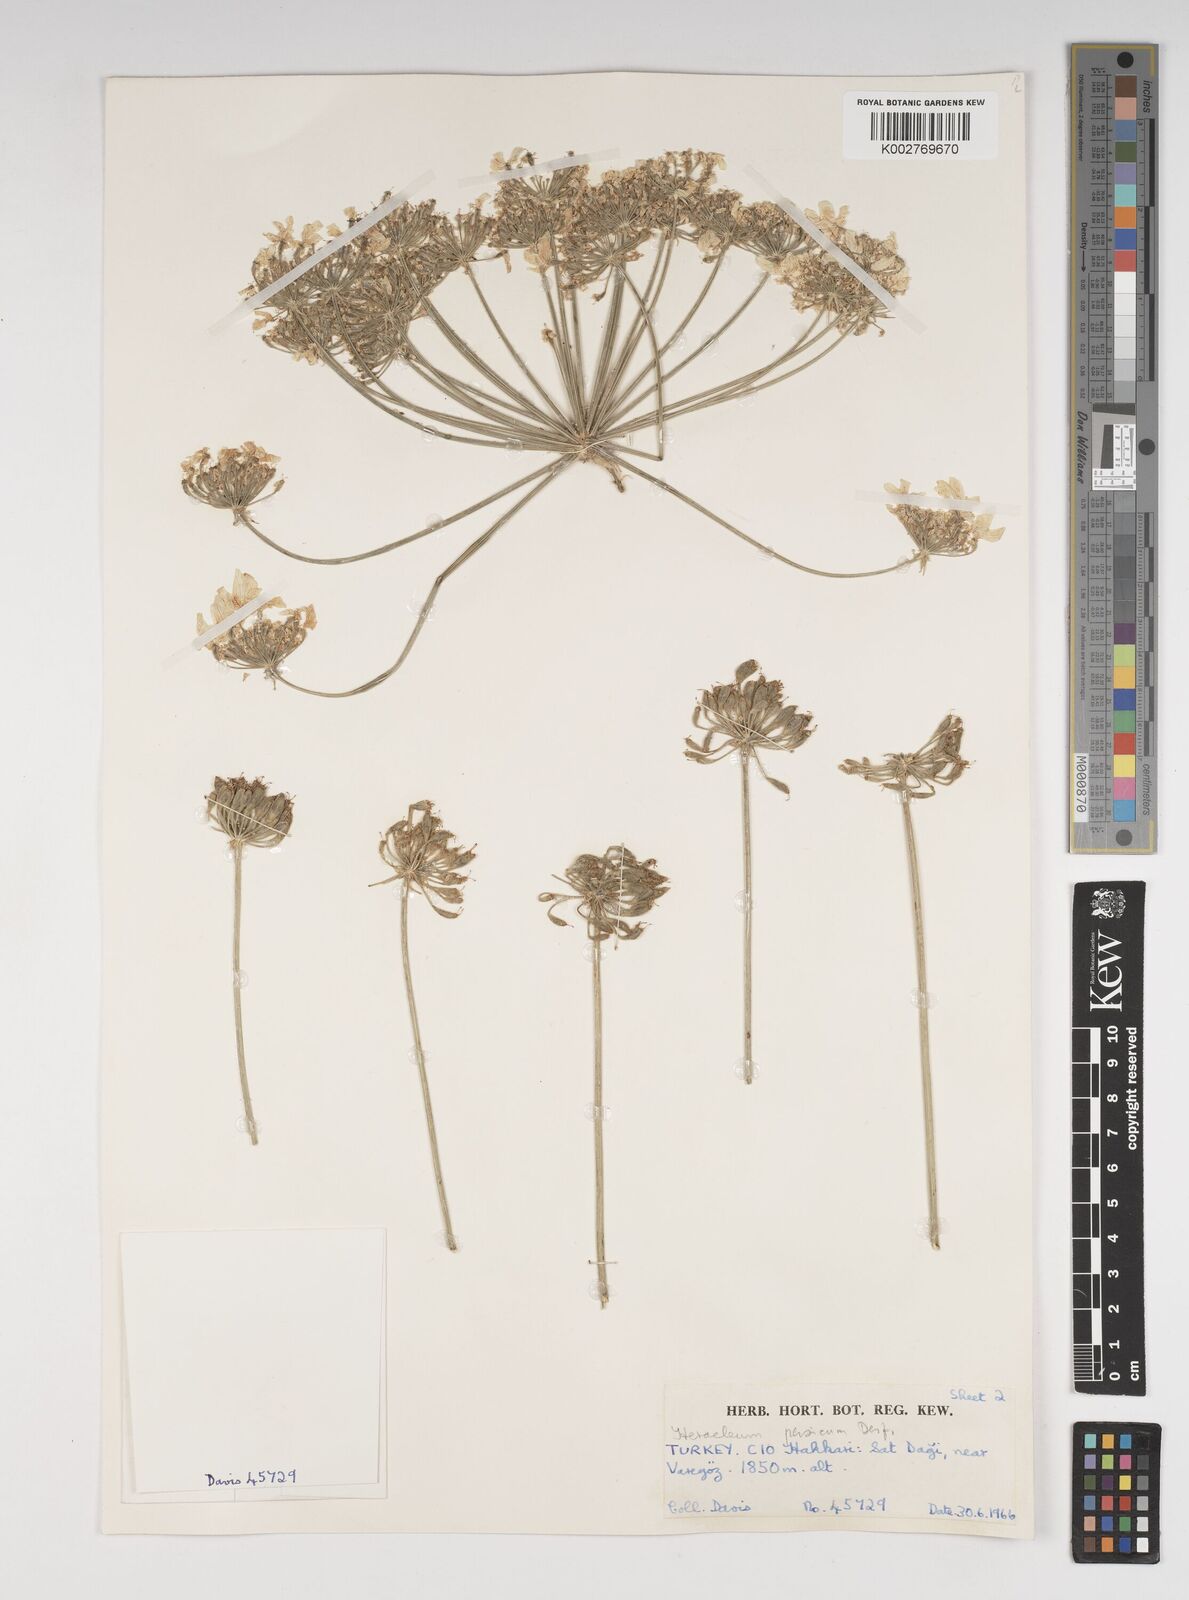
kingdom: Plantae
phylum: Tracheophyta
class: Magnoliopsida
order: Apiales
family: Apiaceae
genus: Heracleum
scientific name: Heracleum persicum
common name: Persian hogweed
